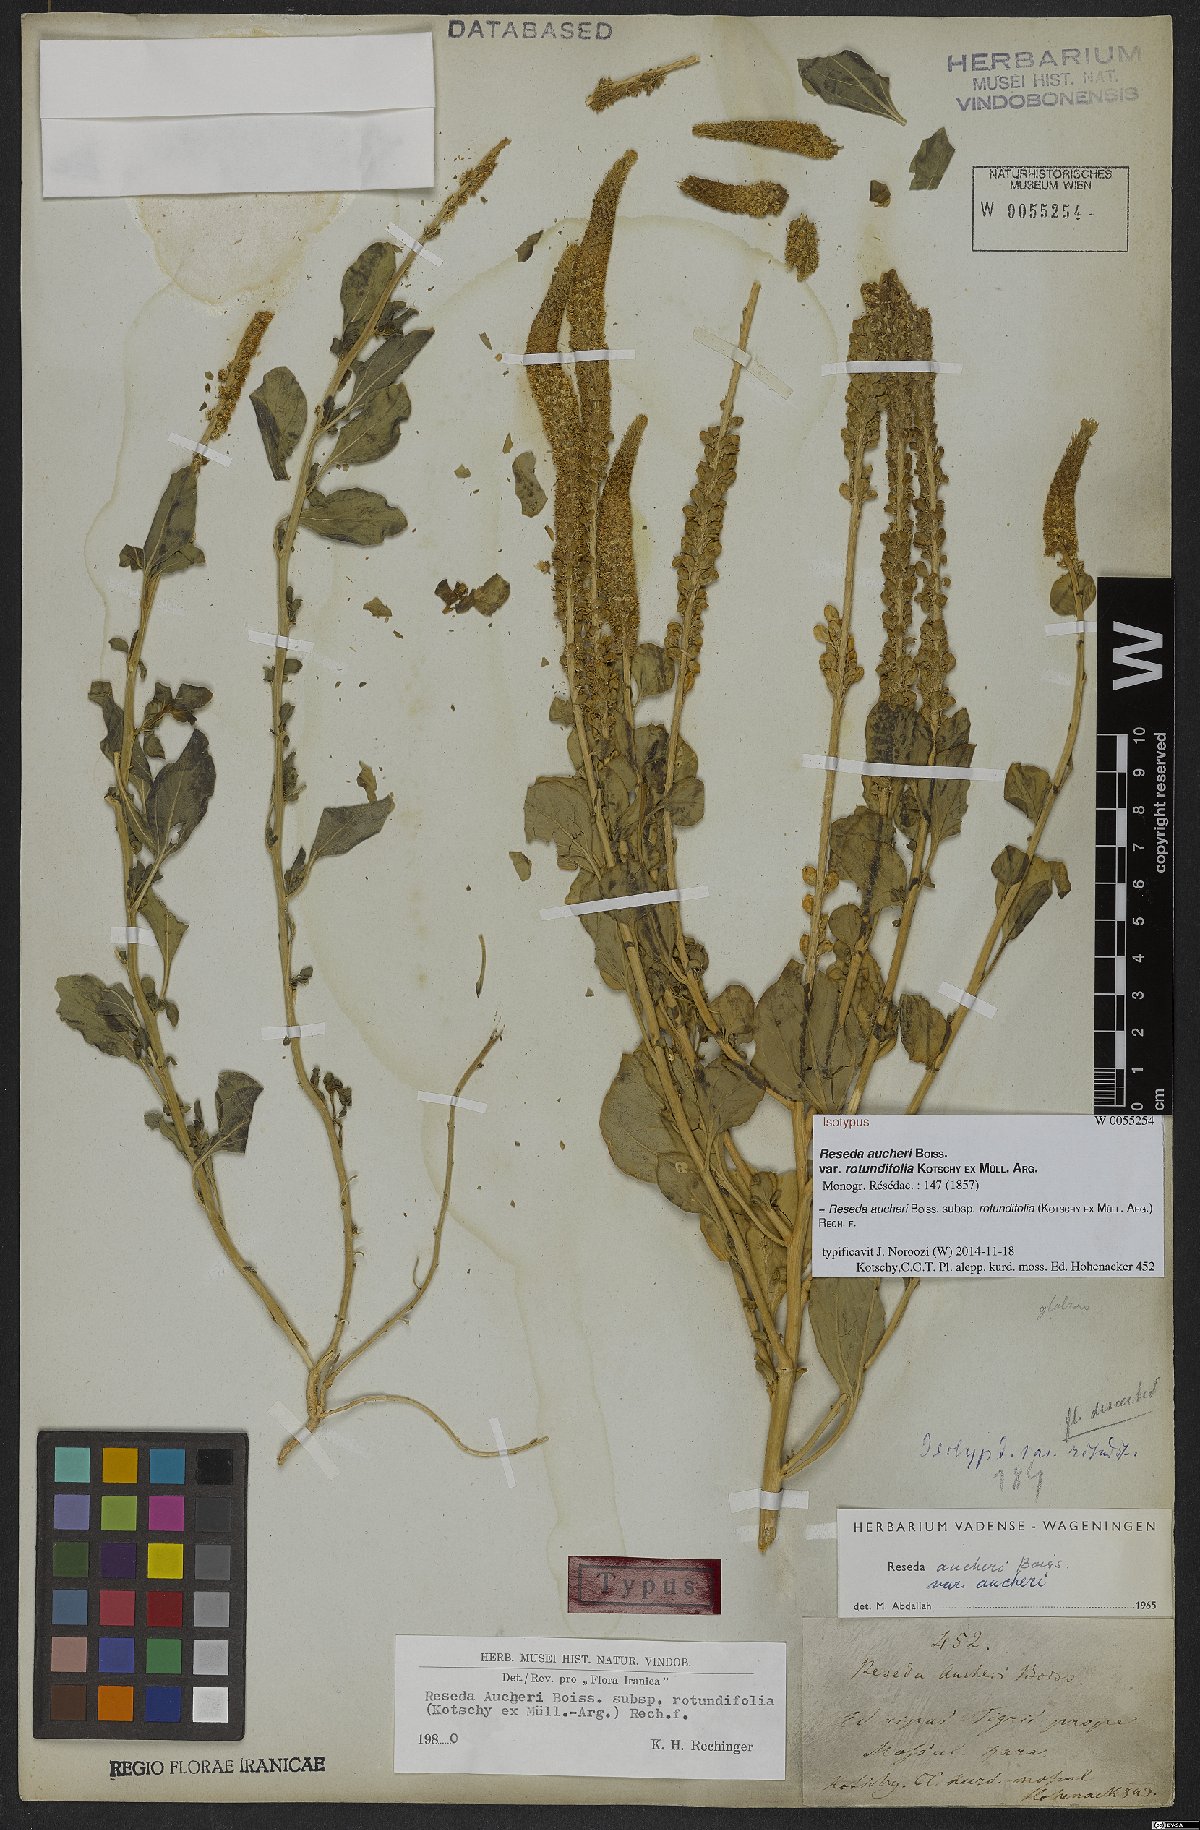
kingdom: Plantae
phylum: Tracheophyta
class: Magnoliopsida
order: Brassicales
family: Resedaceae
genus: Reseda
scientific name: Reseda aucheri
